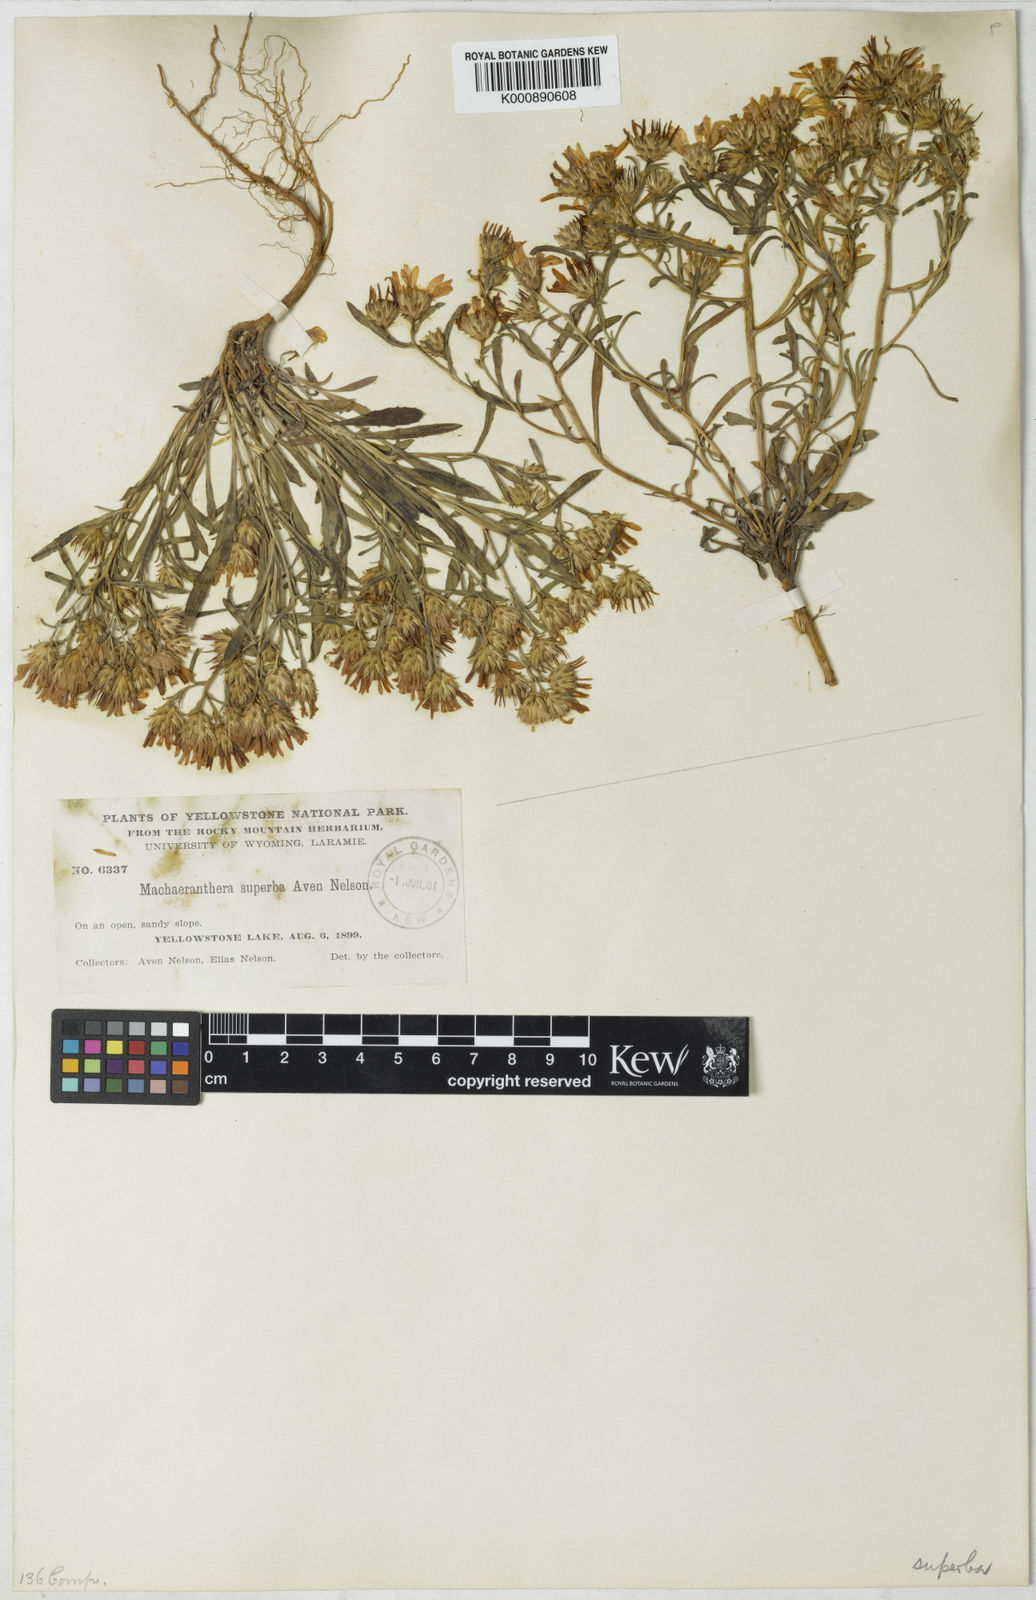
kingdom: Plantae
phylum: Tracheophyta
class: Magnoliopsida
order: Asterales
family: Asteraceae
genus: Aster
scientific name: Aster
